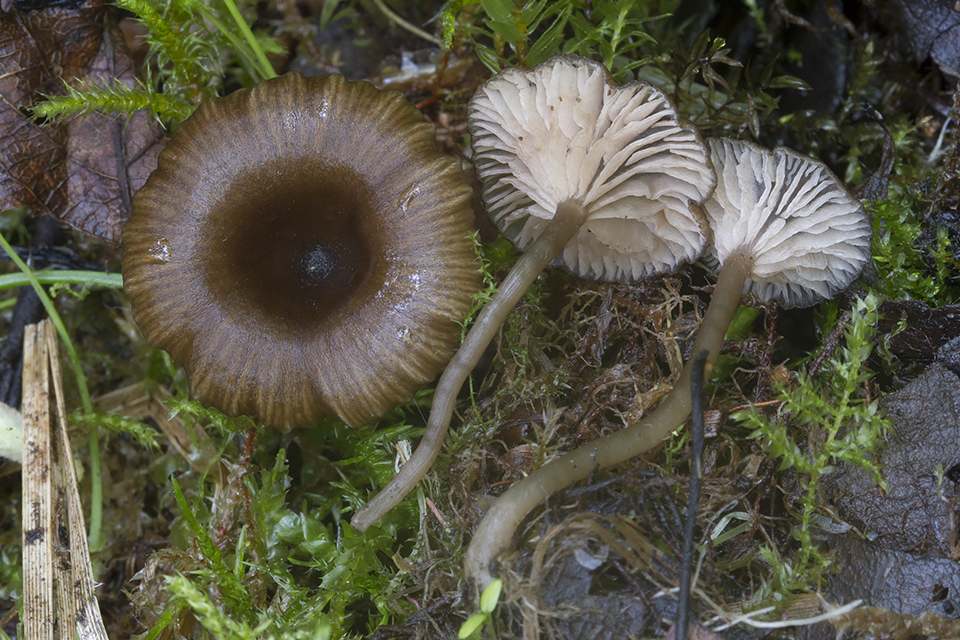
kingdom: Fungi
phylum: Basidiomycota
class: Agaricomycetes
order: Agaricales
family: Entolomataceae
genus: Entoloma
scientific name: Entoloma politum
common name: poleret rødblad
